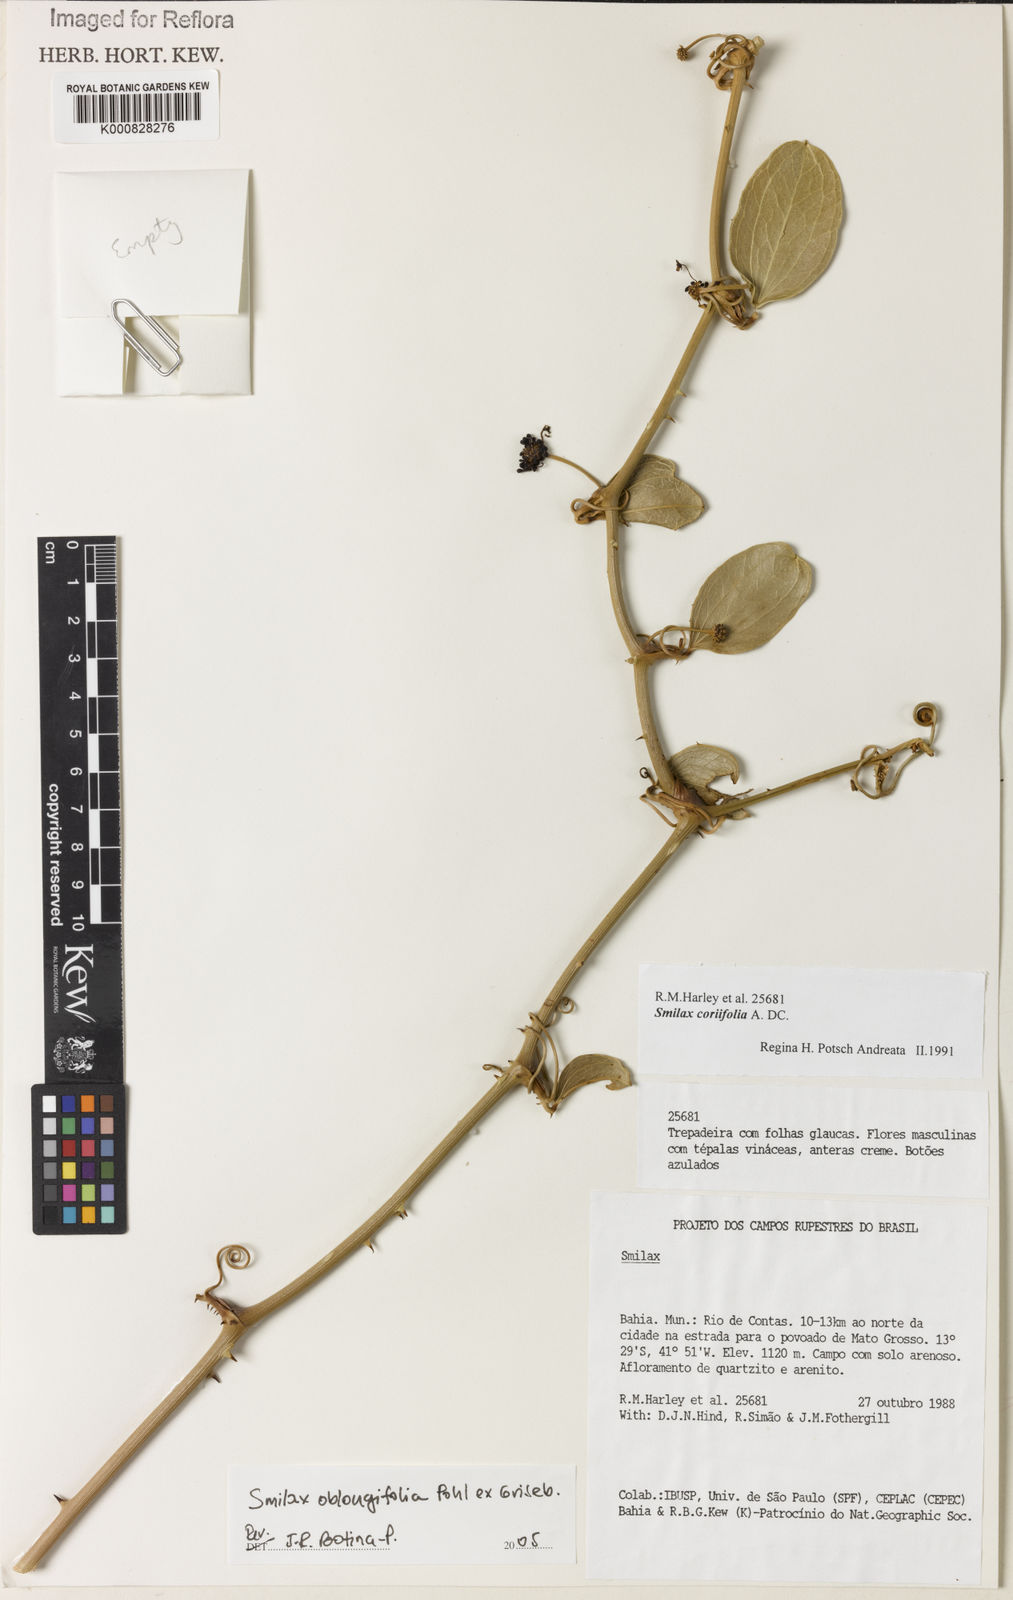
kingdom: Plantae
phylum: Tracheophyta
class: Liliopsida
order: Liliales
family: Smilacaceae
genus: Smilax
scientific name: Smilax oblongifolia
